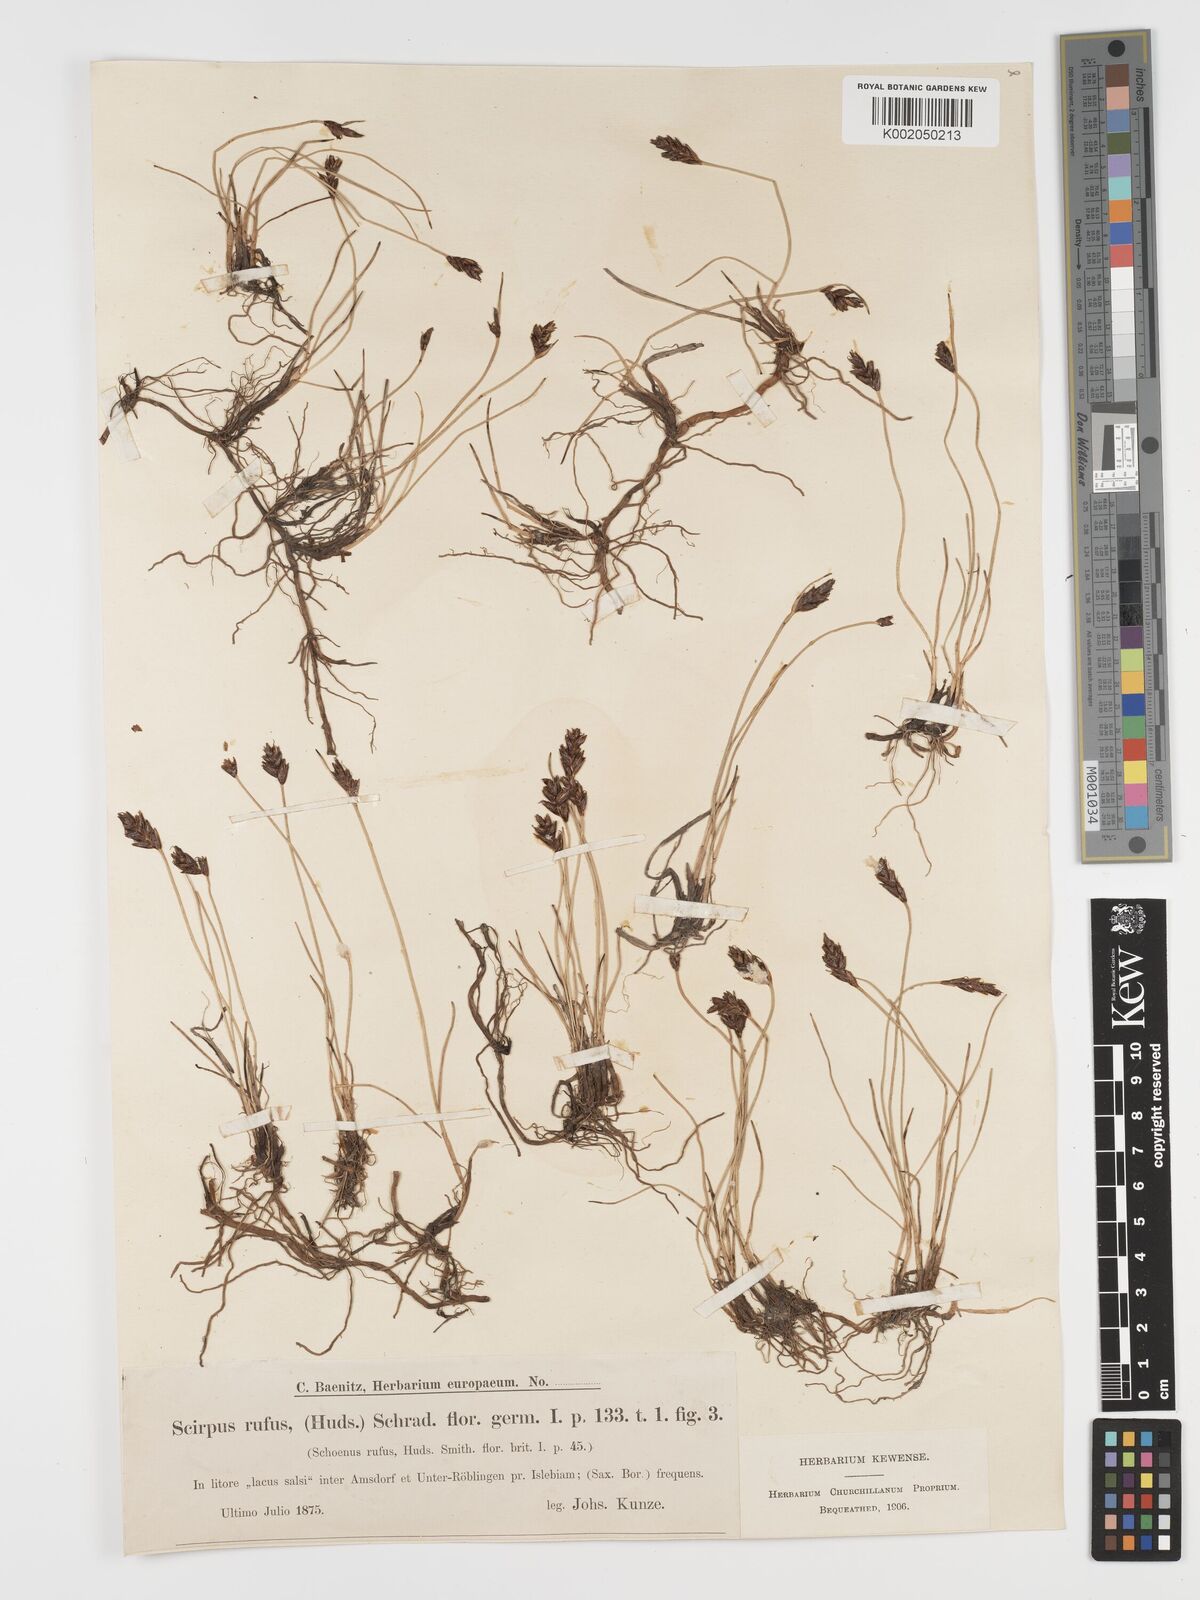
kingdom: Plantae
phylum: Tracheophyta
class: Liliopsida
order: Poales
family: Cyperaceae
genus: Blysmus
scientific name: Blysmus rufus
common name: Saltmarsh flat-sedge
